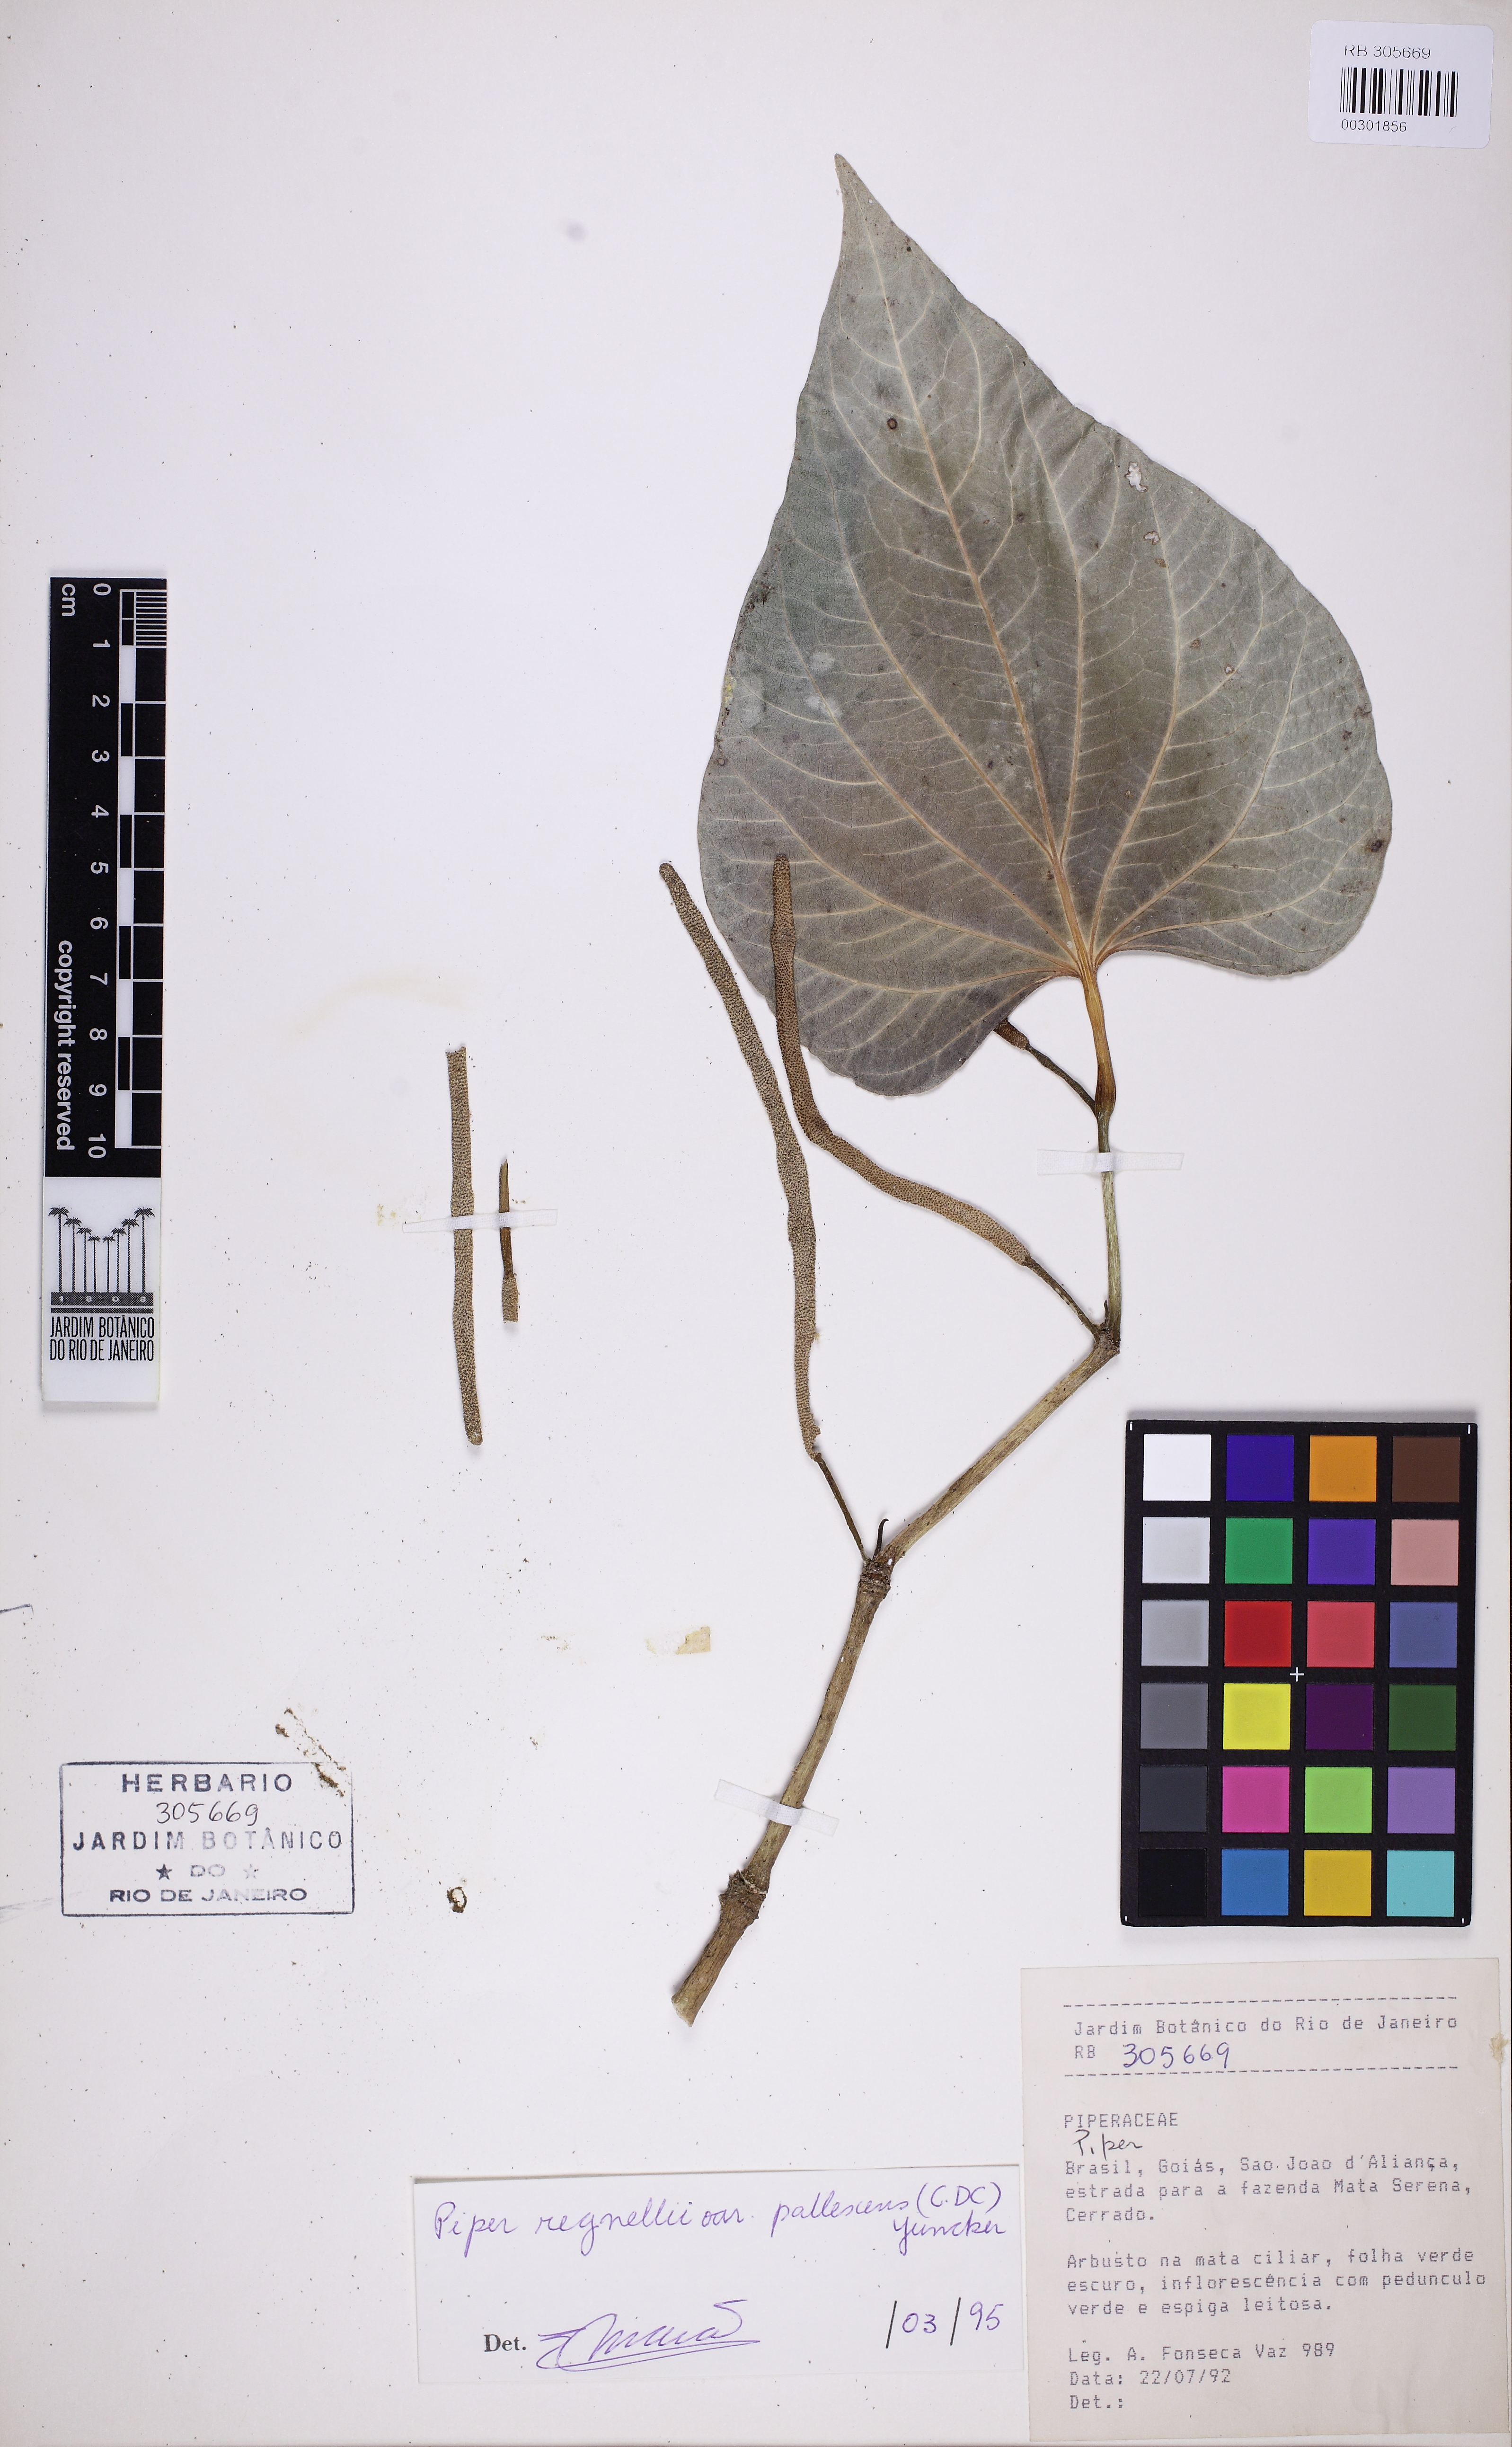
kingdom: Plantae
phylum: Tracheophyta
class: Magnoliopsida
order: Piperales
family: Piperaceae
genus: Piper
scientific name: Piper regnellii
